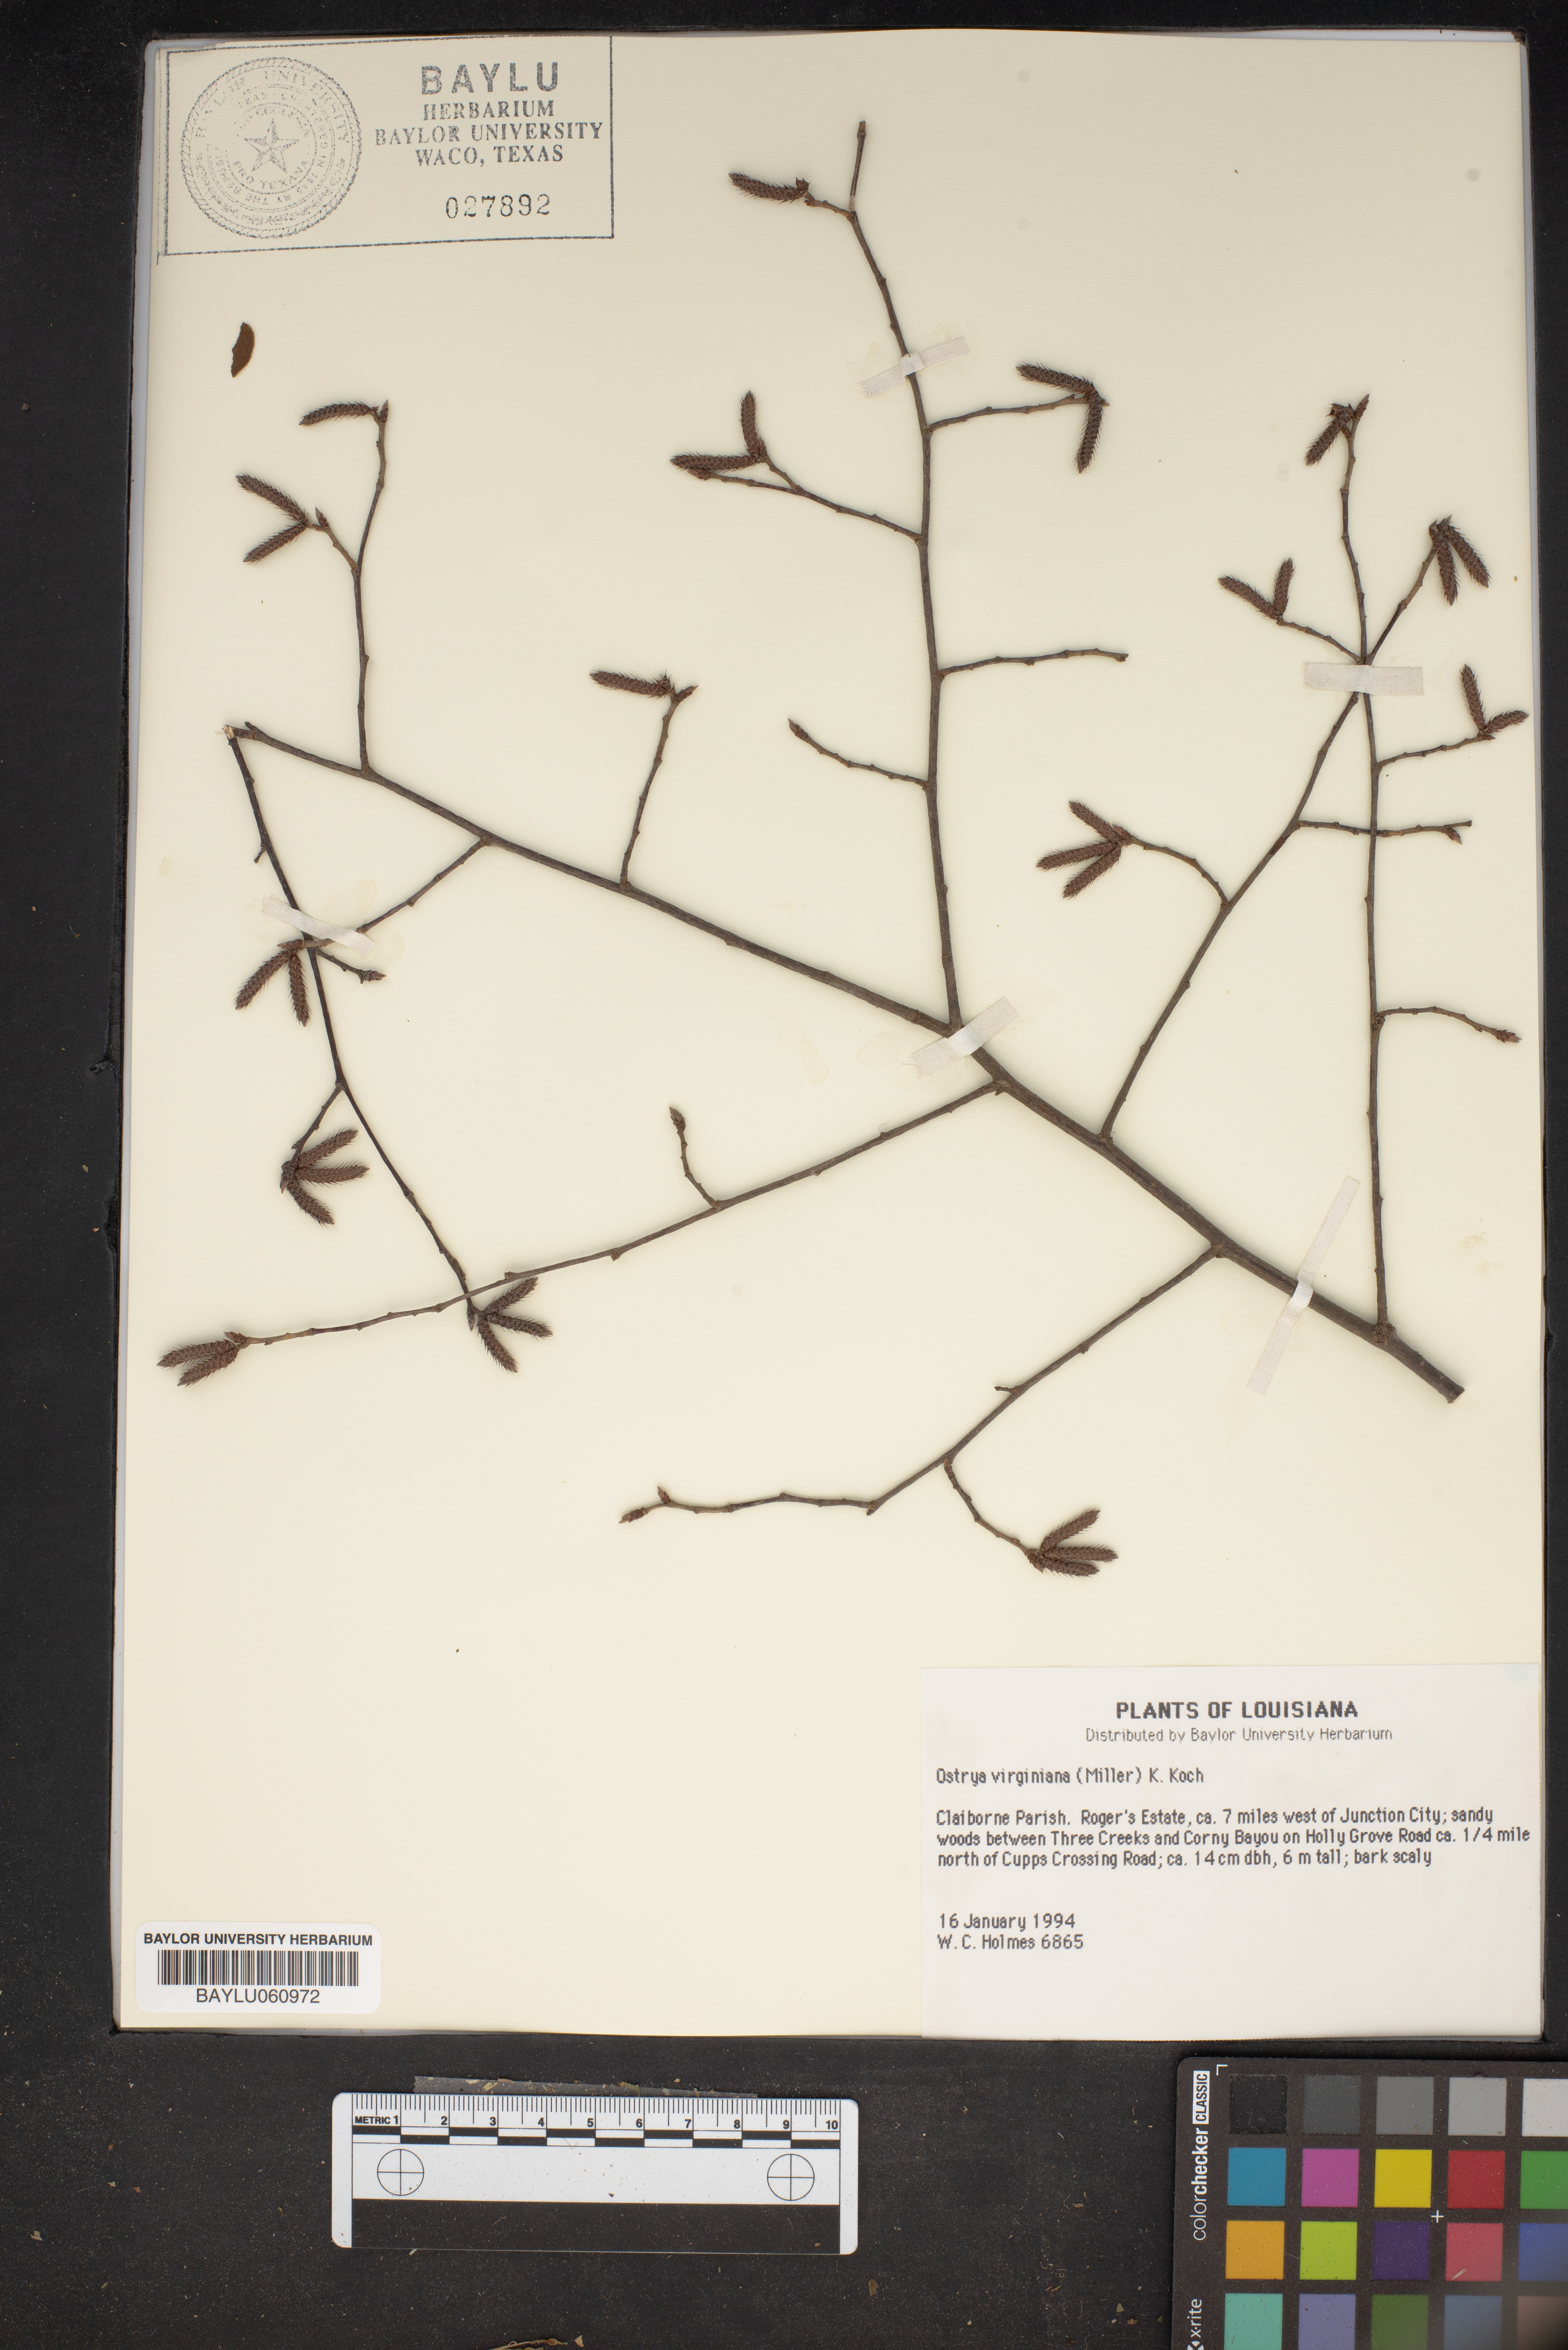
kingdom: Plantae
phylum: Tracheophyta
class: Magnoliopsida
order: Fagales
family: Betulaceae
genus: Ostrya
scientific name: Ostrya virginiana
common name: Ironwood
